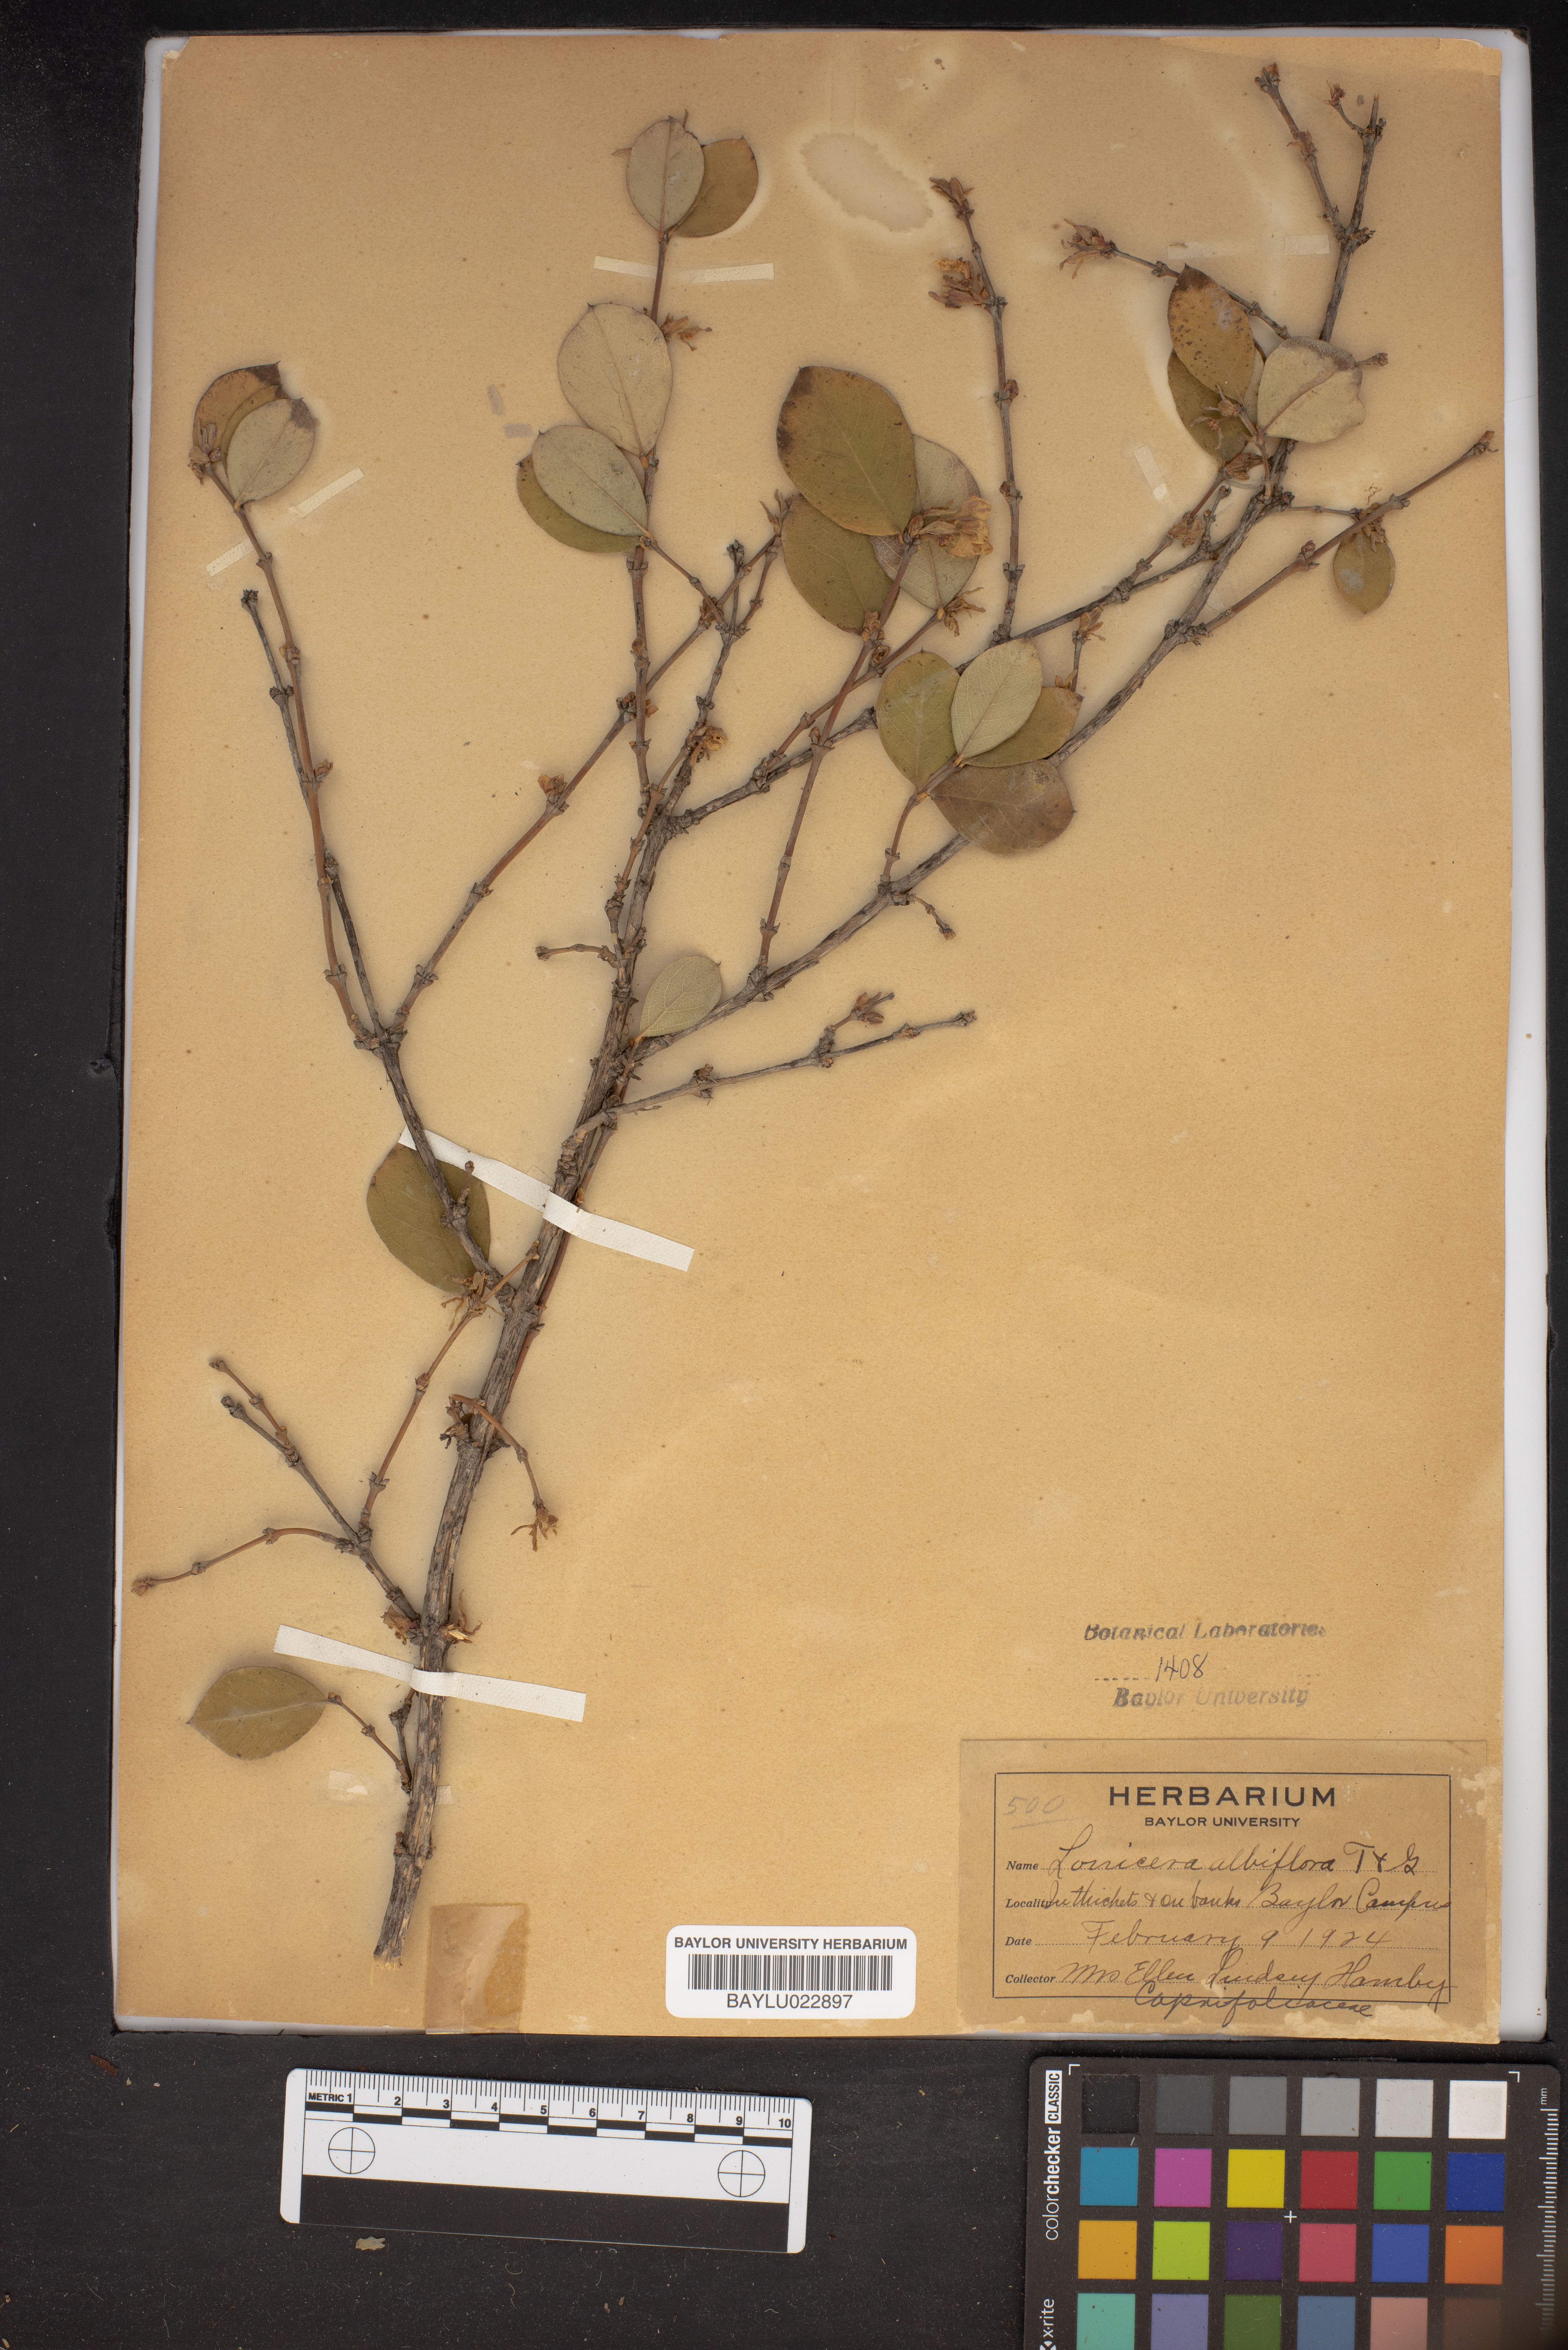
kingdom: Plantae
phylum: Tracheophyta
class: Magnoliopsida
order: Dipsacales
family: Caprifoliaceae
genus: Lonicera
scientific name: Lonicera albiflora
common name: White honeysuckle
